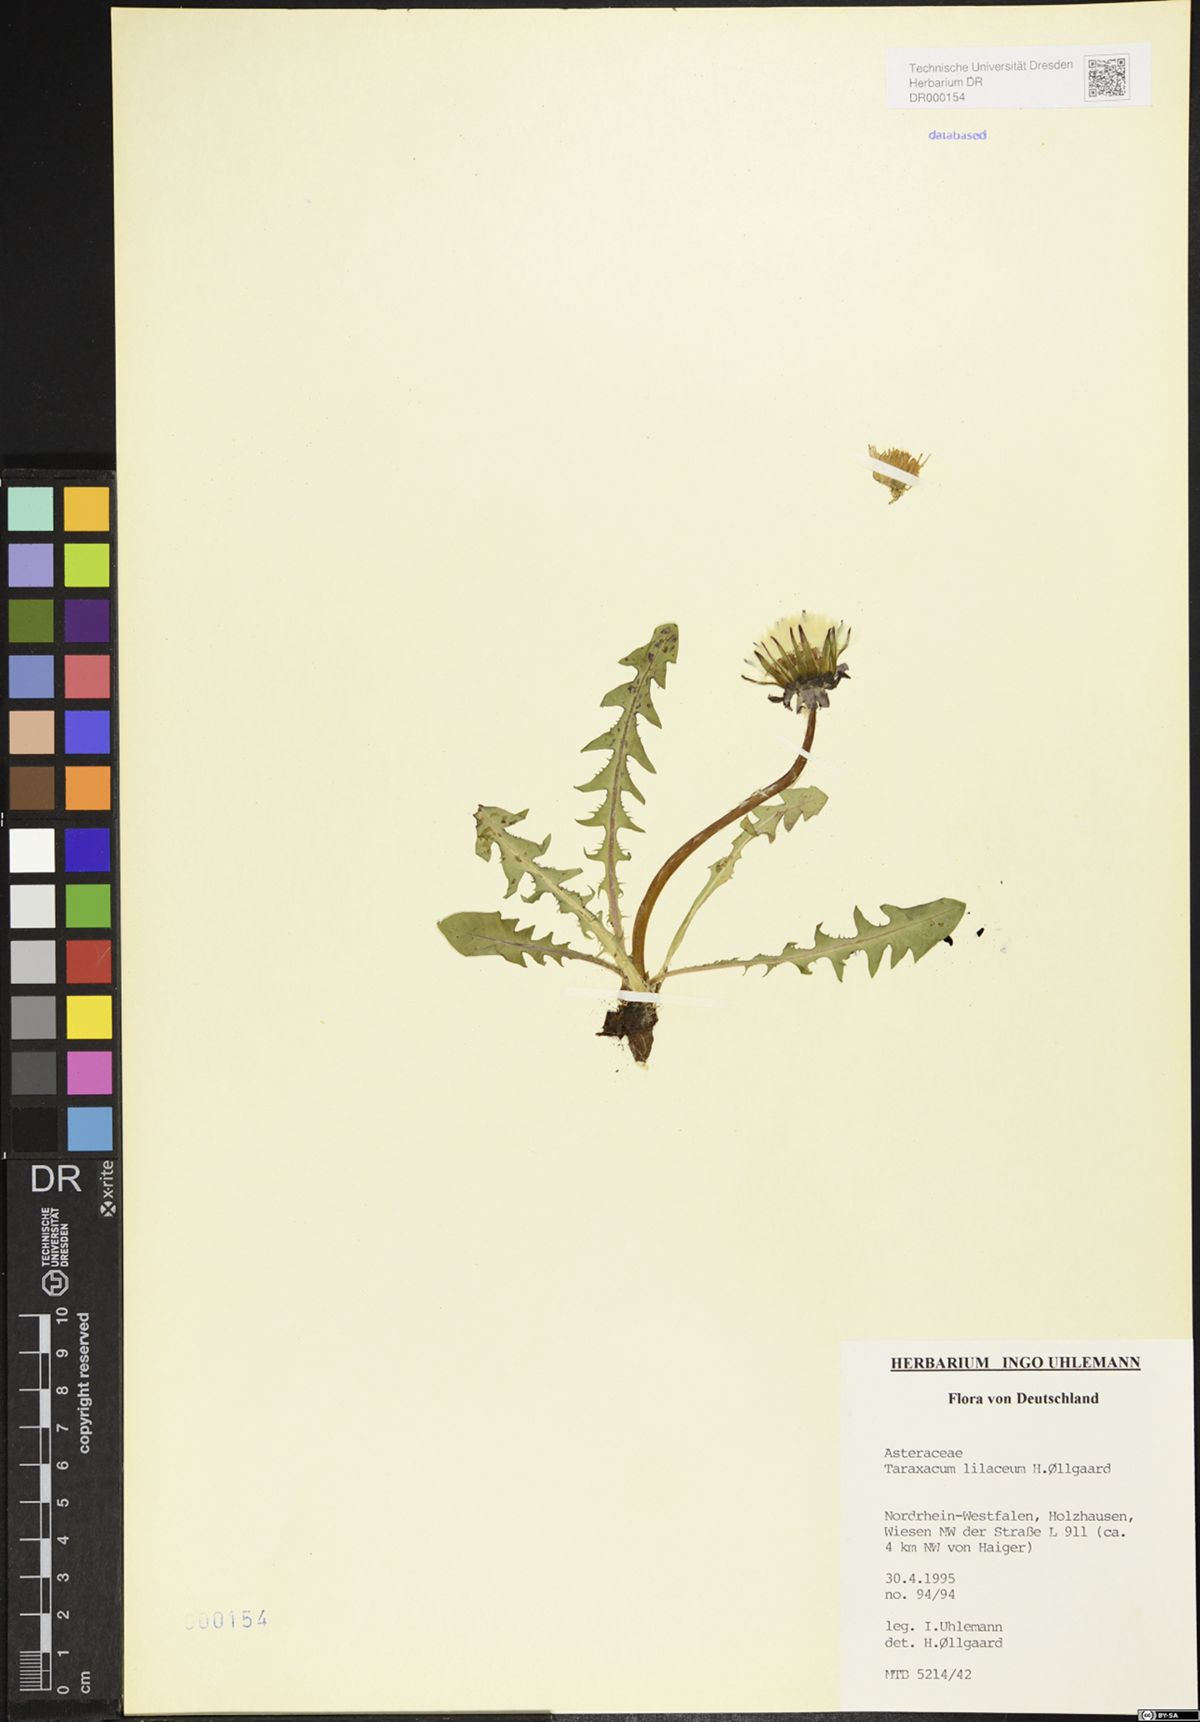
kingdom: Plantae
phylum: Tracheophyta
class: Magnoliopsida
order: Asterales
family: Asteraceae
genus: Taraxacum
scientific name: Taraxacum floccosum
